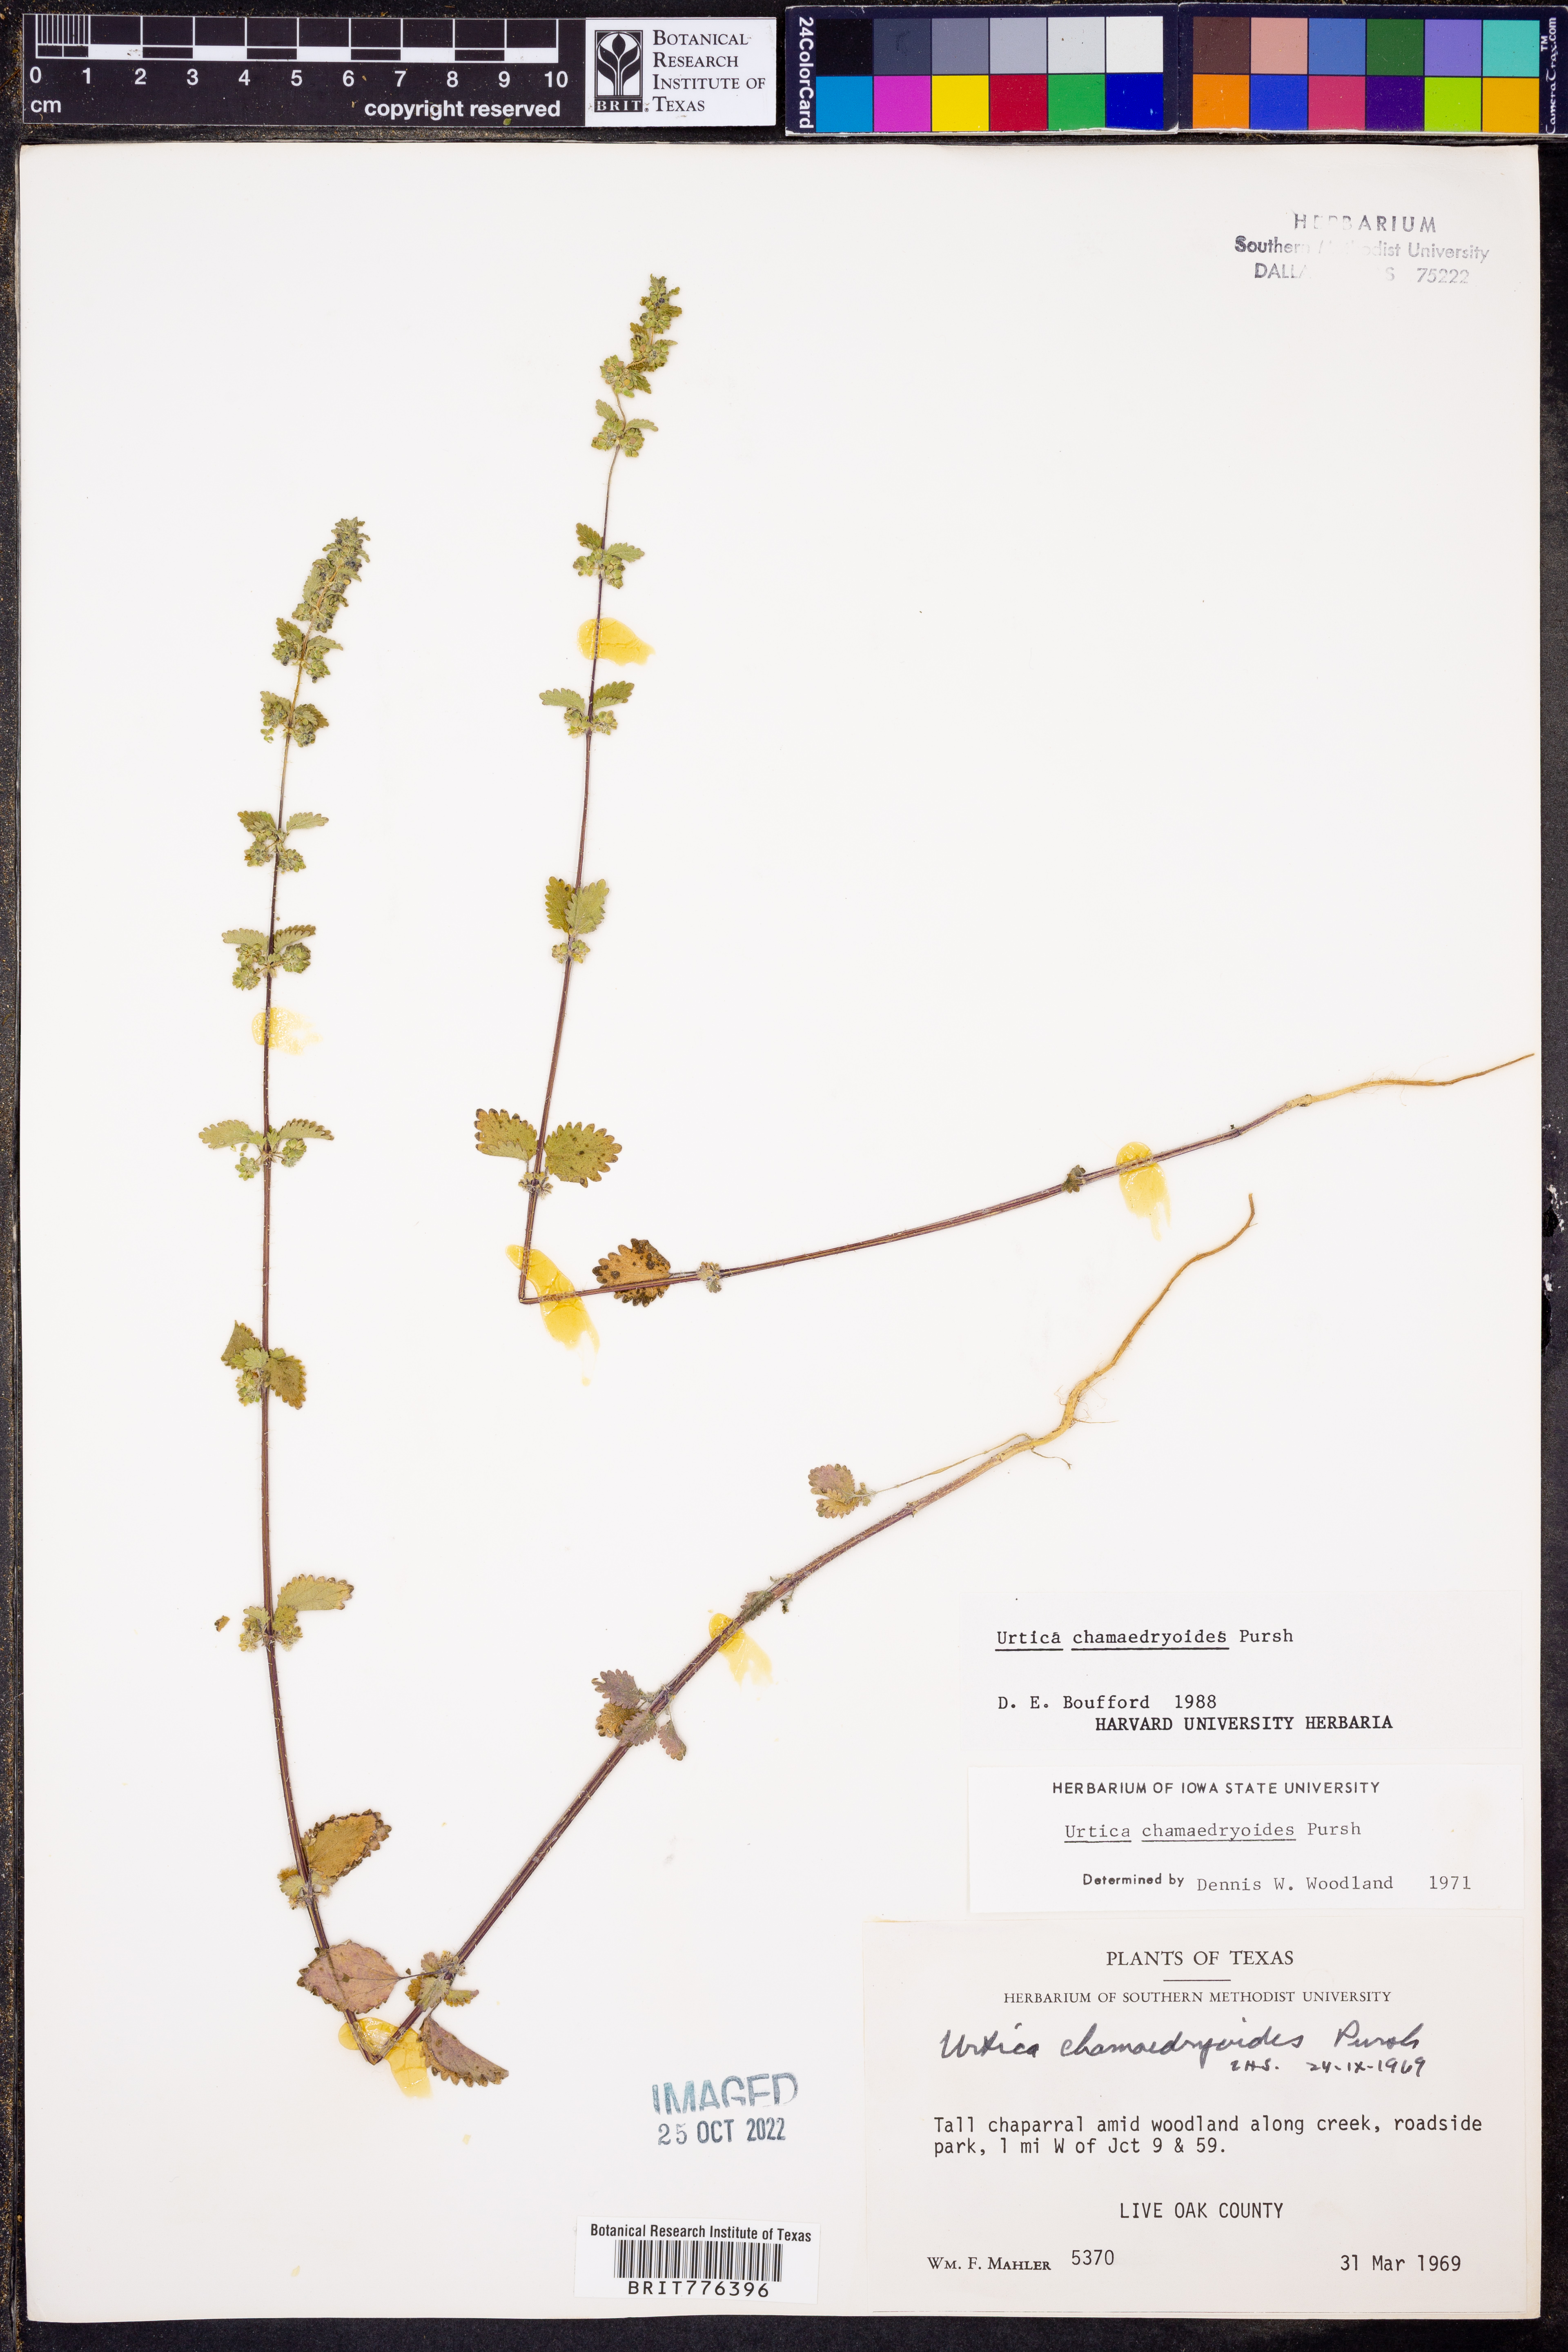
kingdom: Plantae
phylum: Tracheophyta
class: Magnoliopsida
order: Rosales
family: Urticaceae
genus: Urtica
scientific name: Urtica chamaedryoides
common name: Heart-leaf nettle
